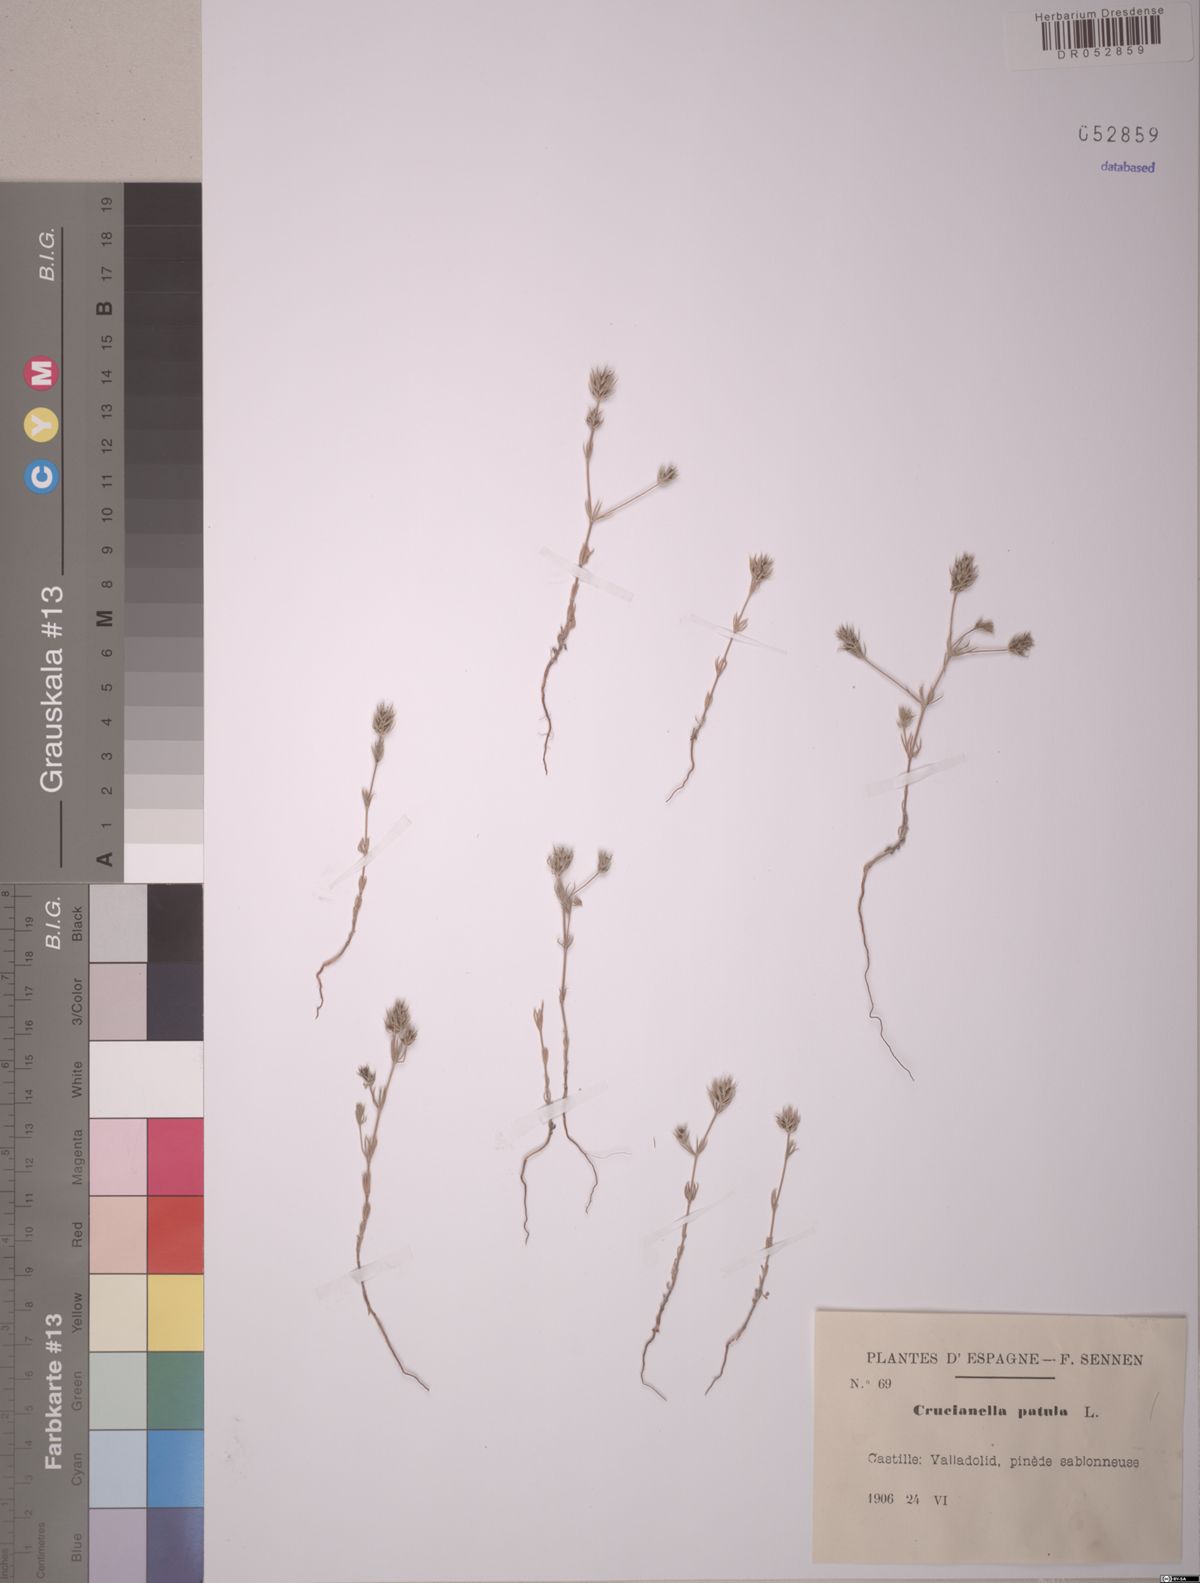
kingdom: Plantae
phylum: Tracheophyta
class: Magnoliopsida
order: Gentianales
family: Rubiaceae
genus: Crucianella
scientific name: Crucianella patula
